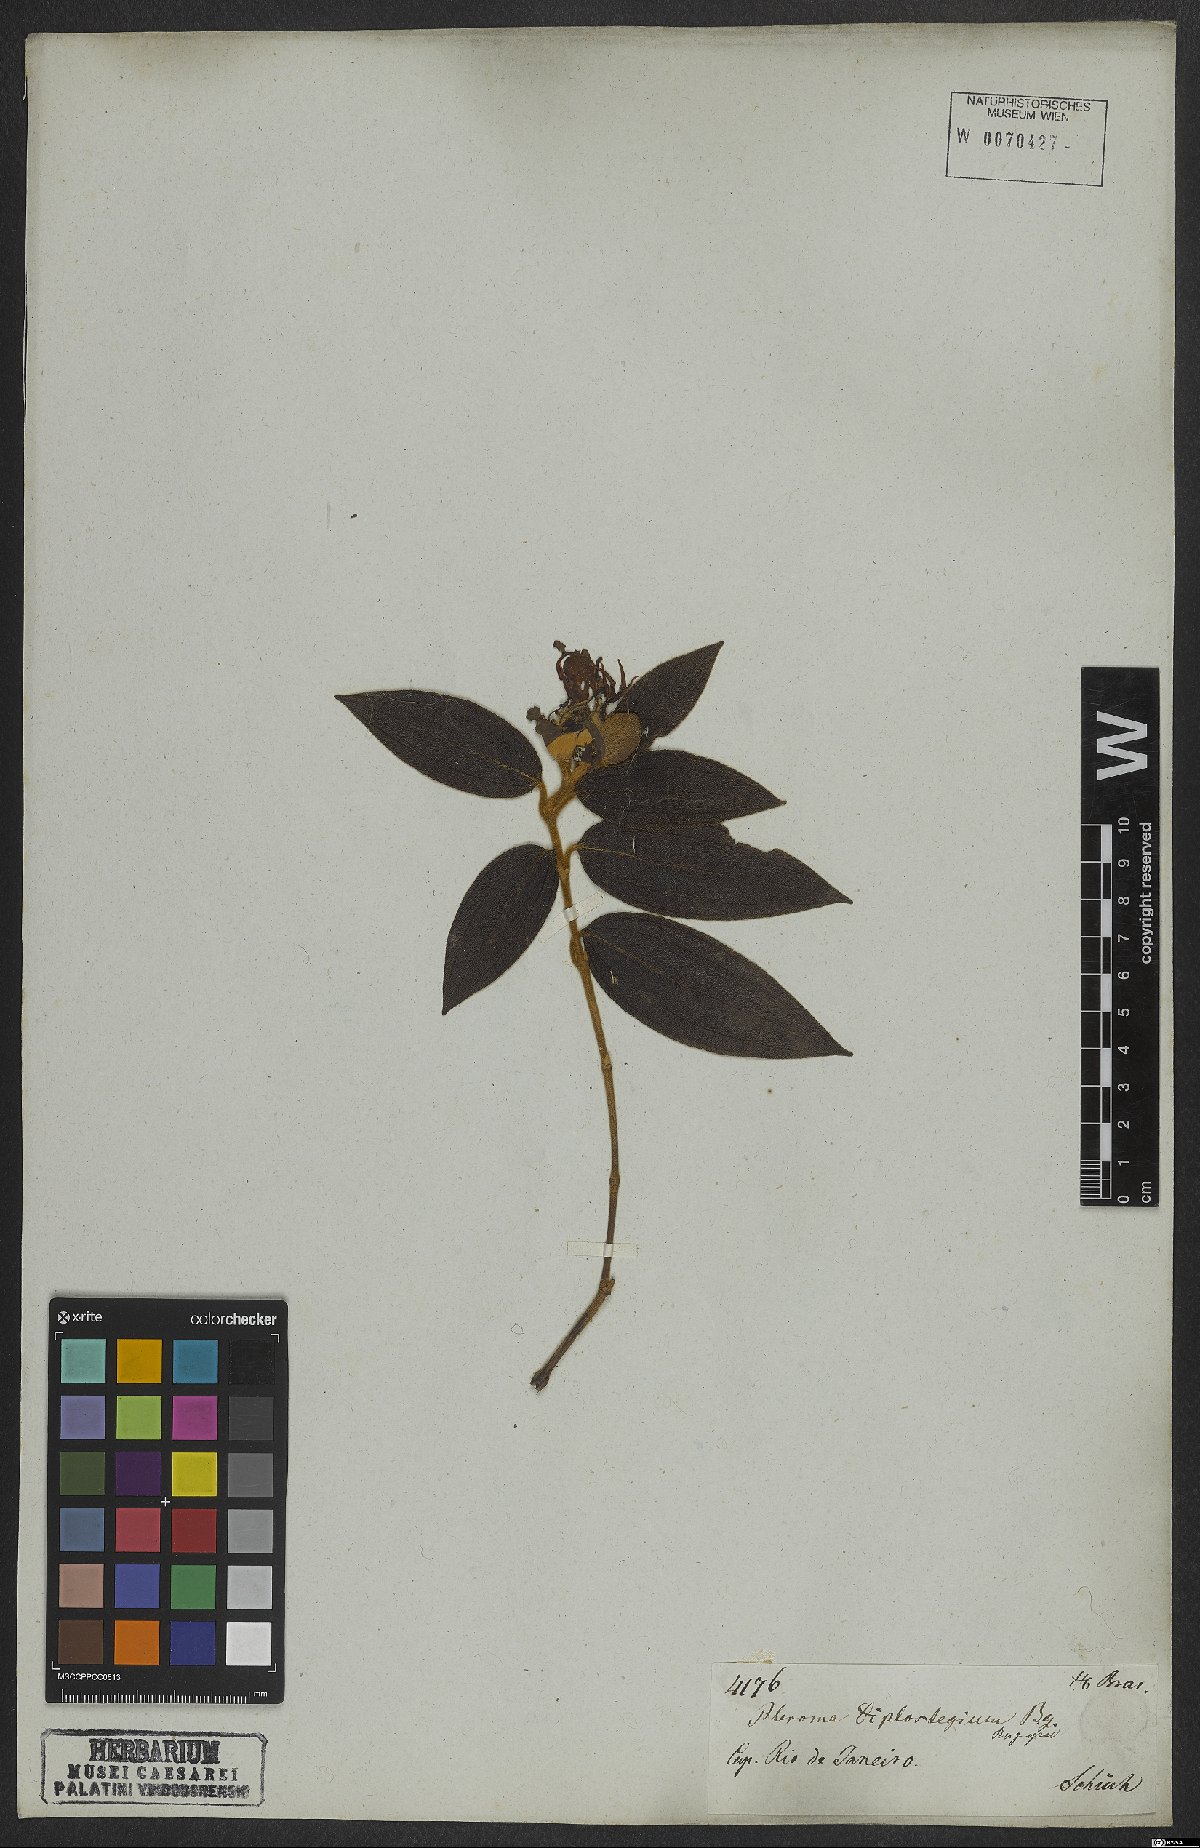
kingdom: Plantae
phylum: Tracheophyta
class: Magnoliopsida
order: Myrtales
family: Melastomataceae
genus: Pleroma
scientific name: Pleroma canescens
